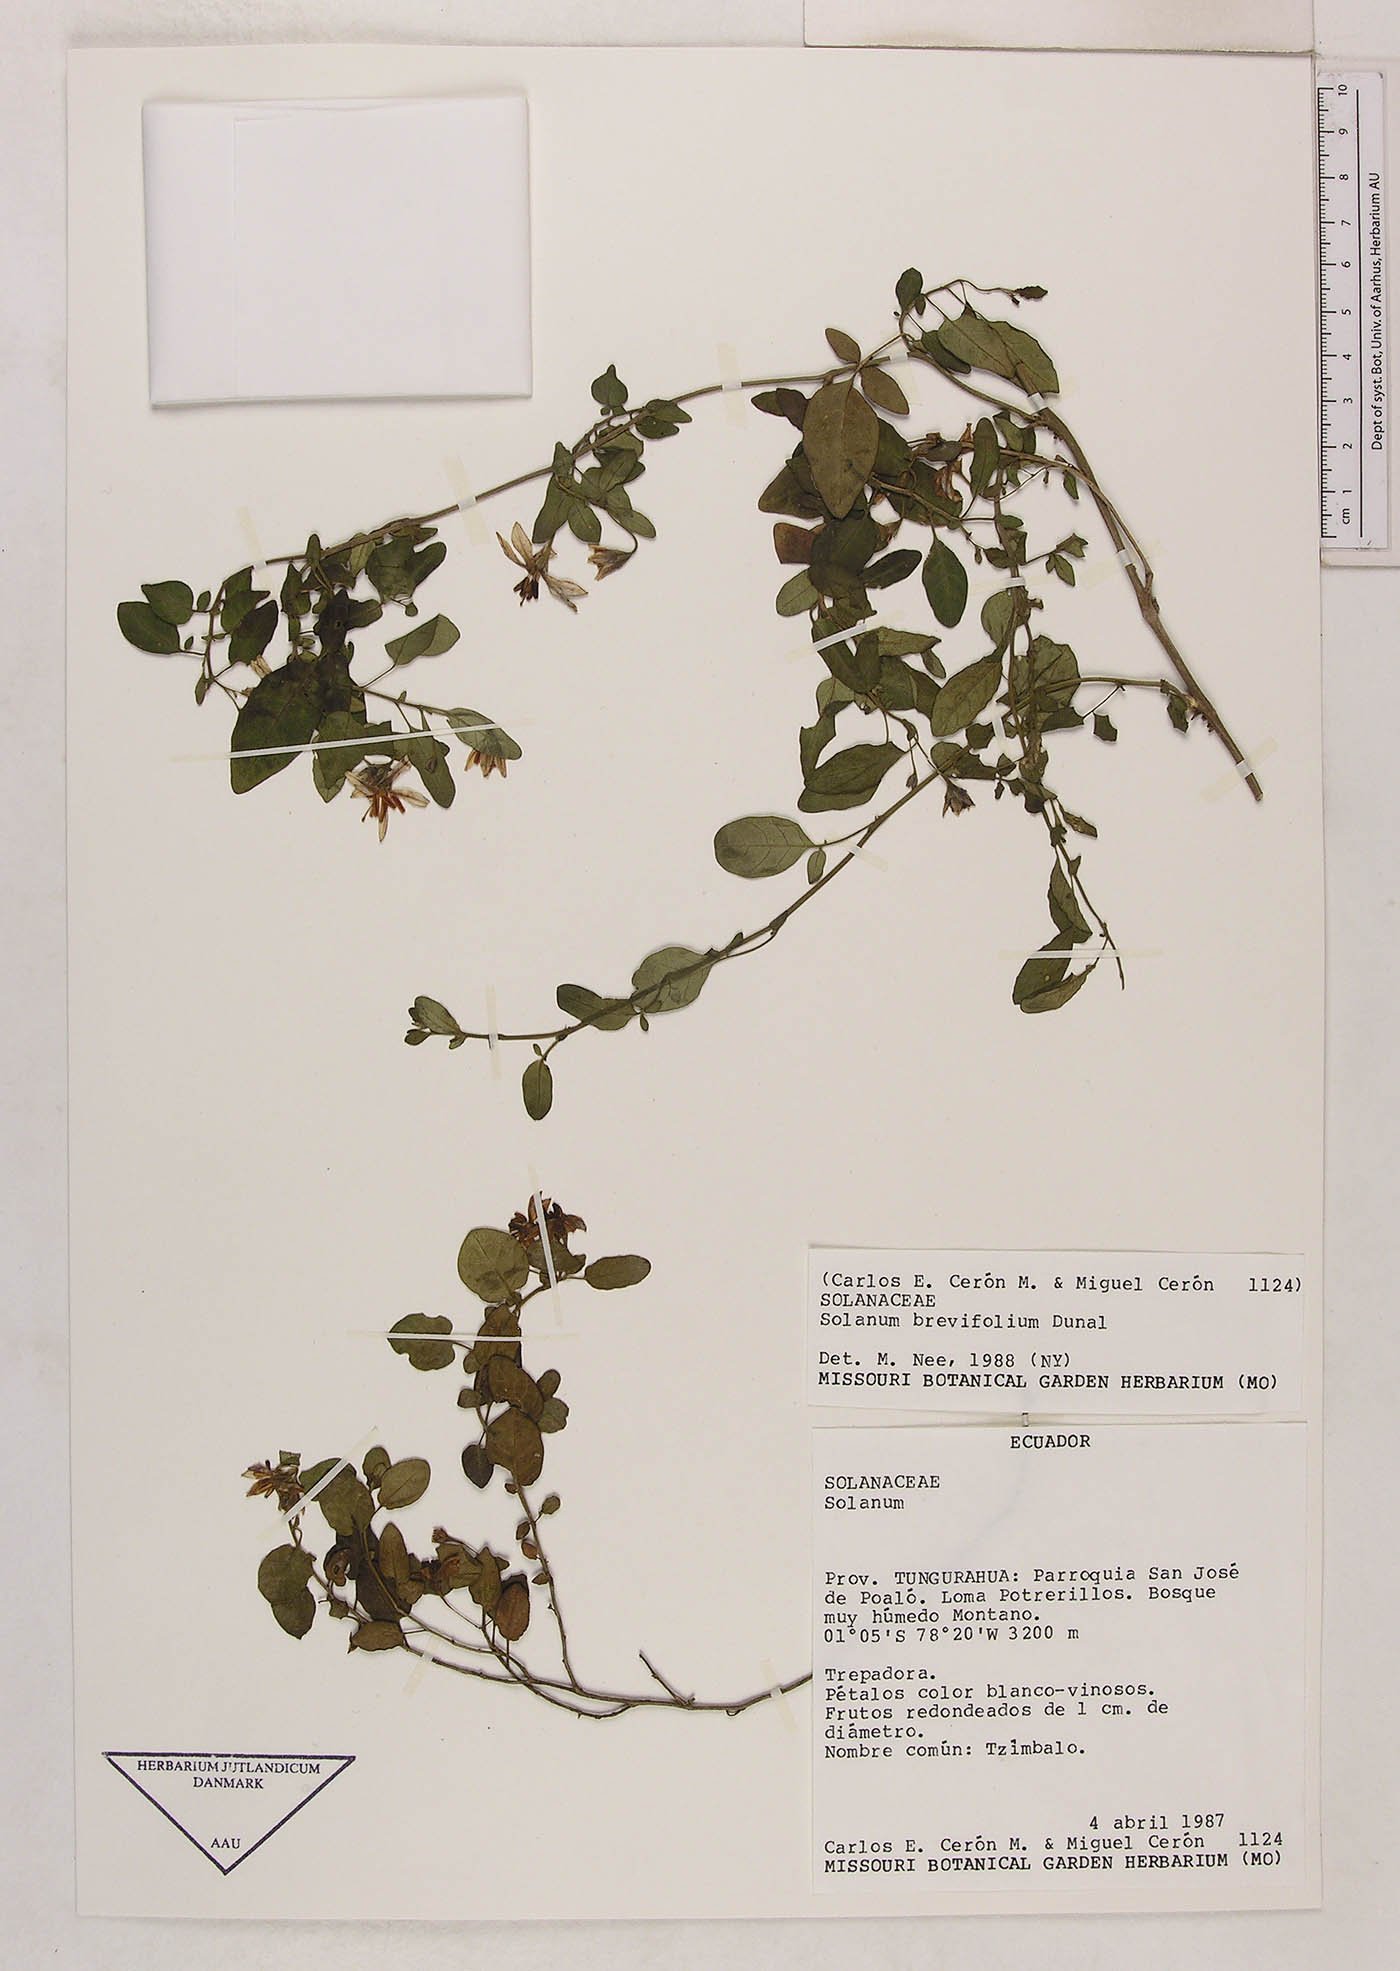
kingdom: Plantae
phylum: Tracheophyta
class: Magnoliopsida
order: Solanales
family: Solanaceae
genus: Solanum
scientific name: Solanum brevifolium
